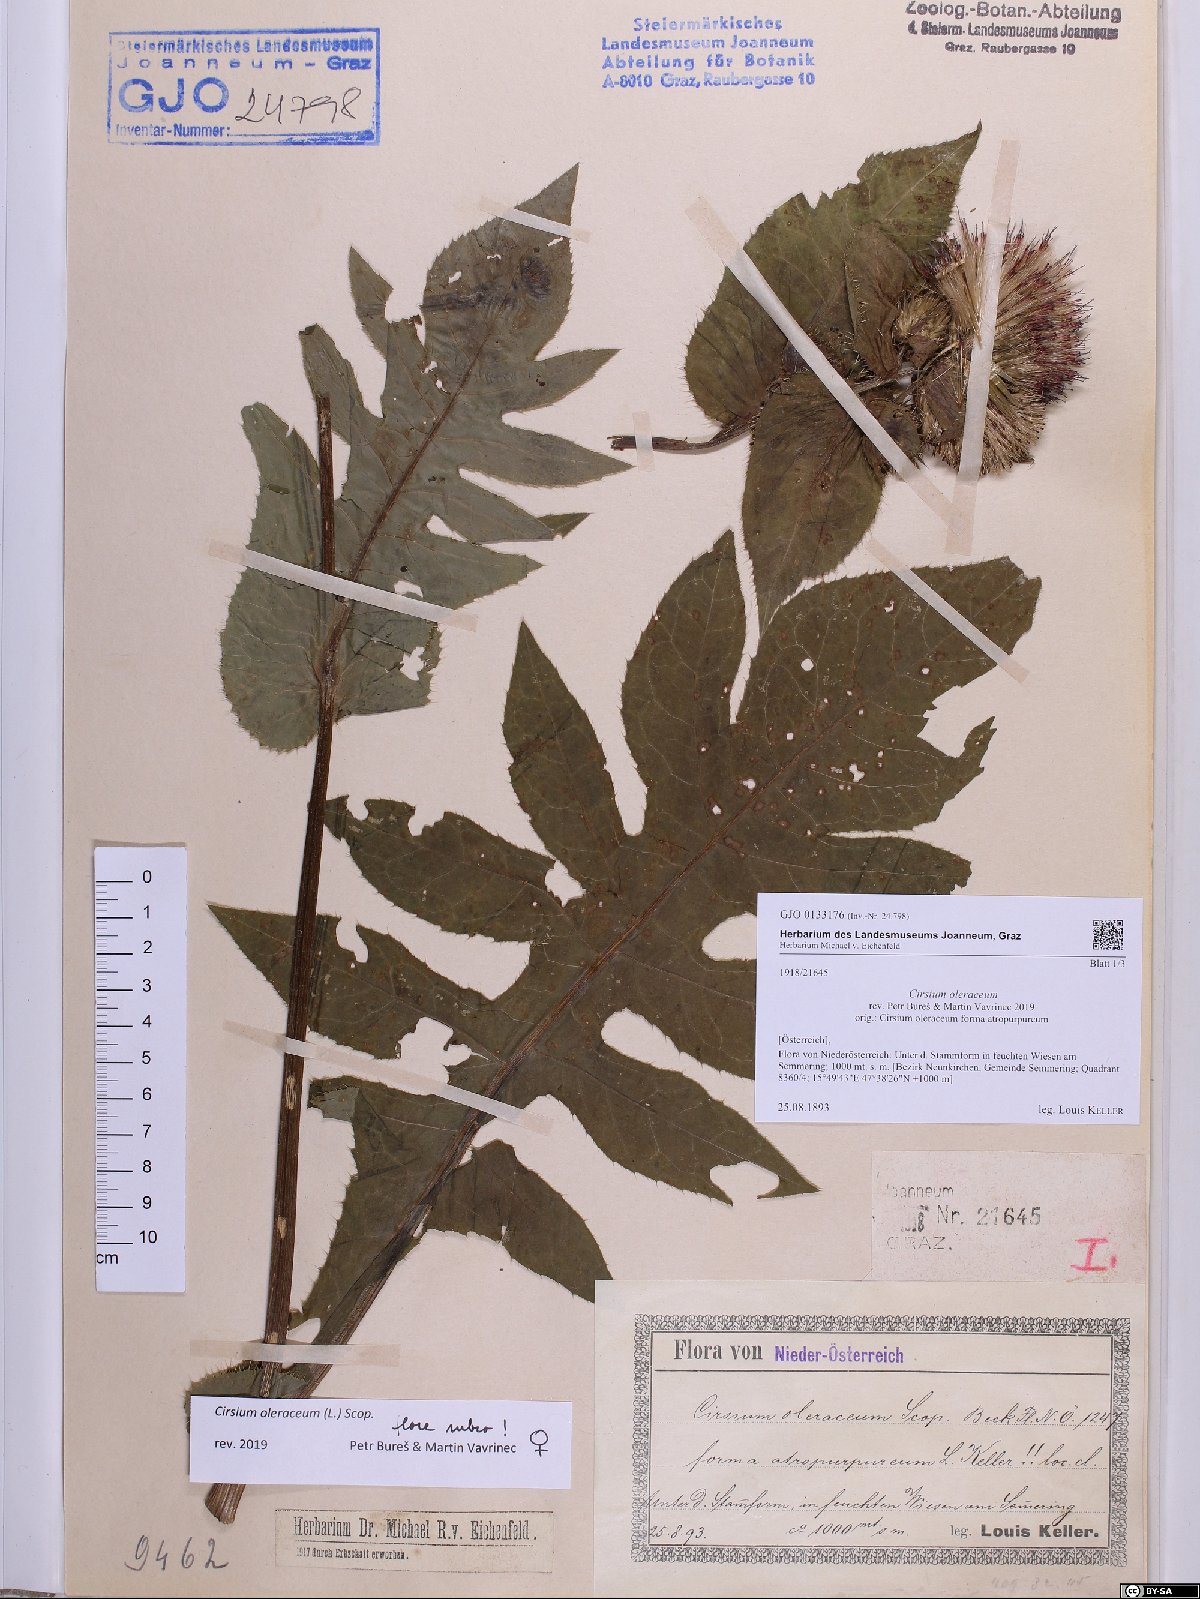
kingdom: Plantae
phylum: Tracheophyta
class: Magnoliopsida
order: Asterales
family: Asteraceae
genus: Cirsium
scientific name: Cirsium oleraceum
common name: Cabbage thistle
